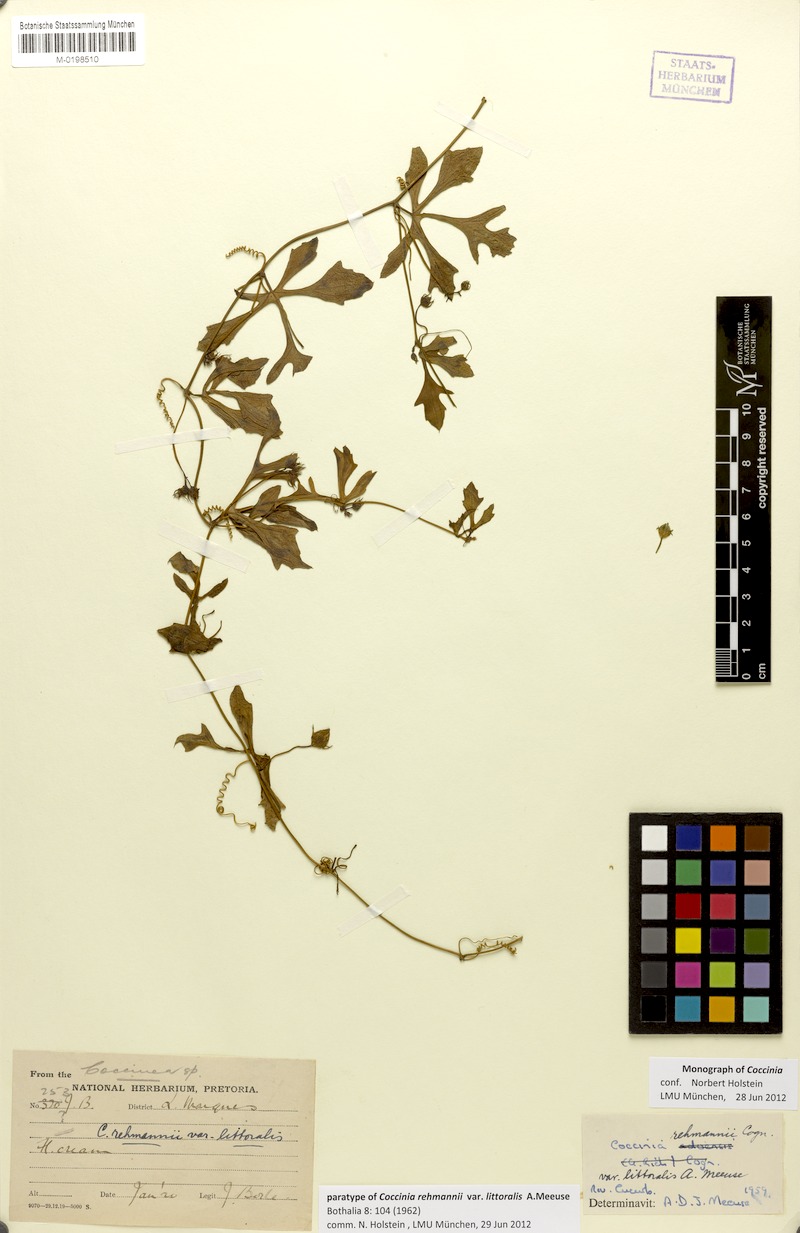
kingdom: Plantae
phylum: Tracheophyta
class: Magnoliopsida
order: Cucurbitales
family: Cucurbitaceae
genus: Coccinia
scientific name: Coccinia rehmannii
